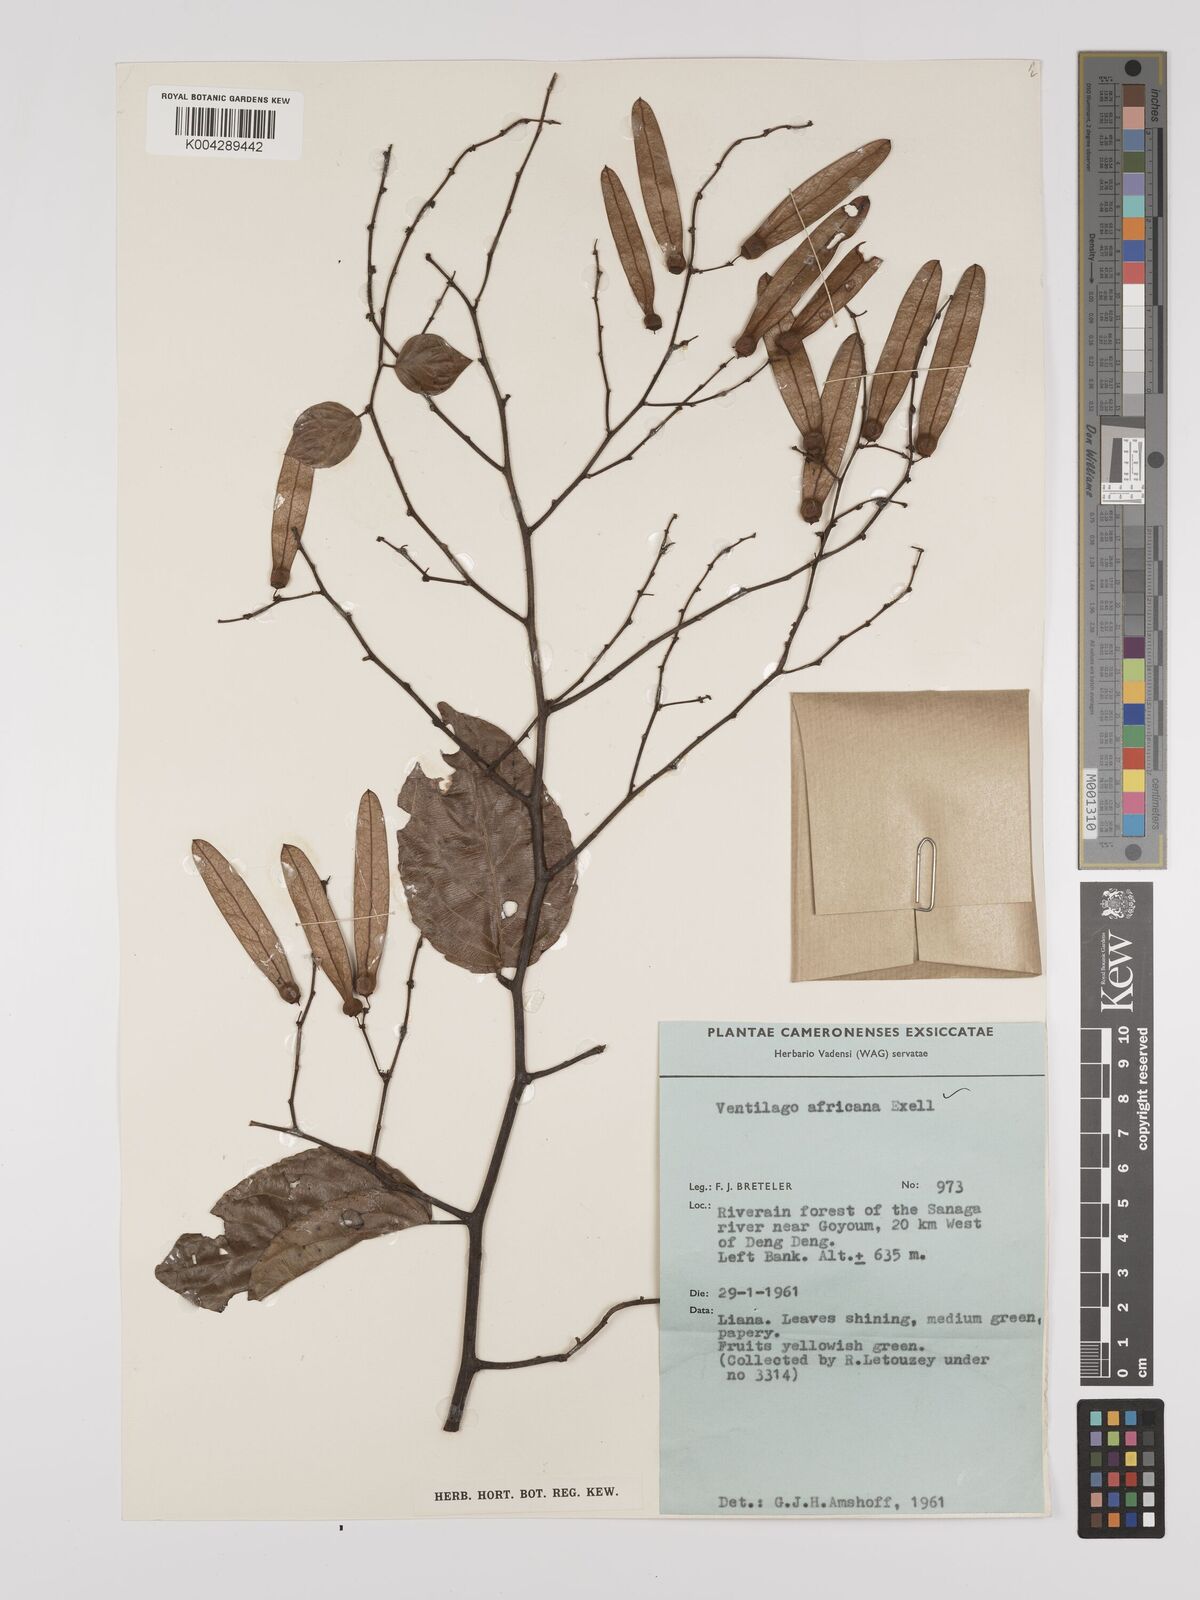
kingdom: Plantae
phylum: Tracheophyta
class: Magnoliopsida
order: Rosales
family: Rhamnaceae
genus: Ventilago
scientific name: Ventilago africana
